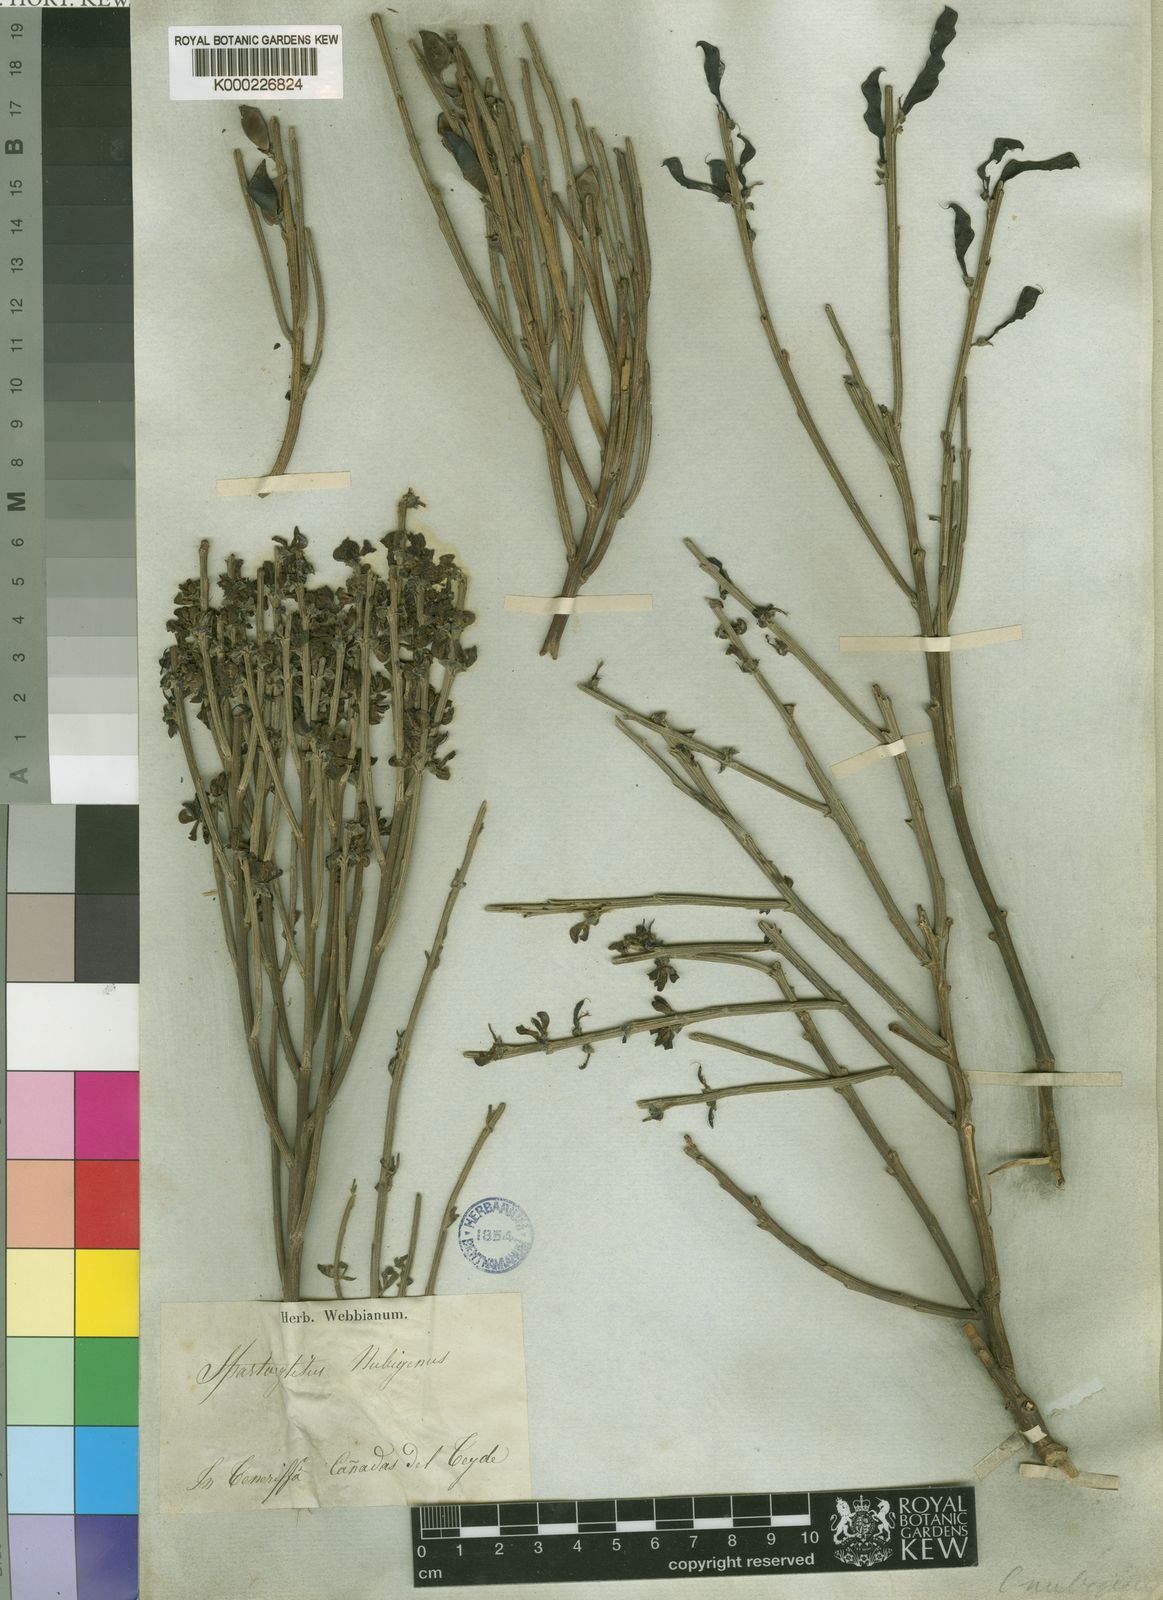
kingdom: Plantae
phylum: Tracheophyta
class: Magnoliopsida
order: Fabales
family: Fabaceae
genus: Cytisus
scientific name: Cytisus supranubius
